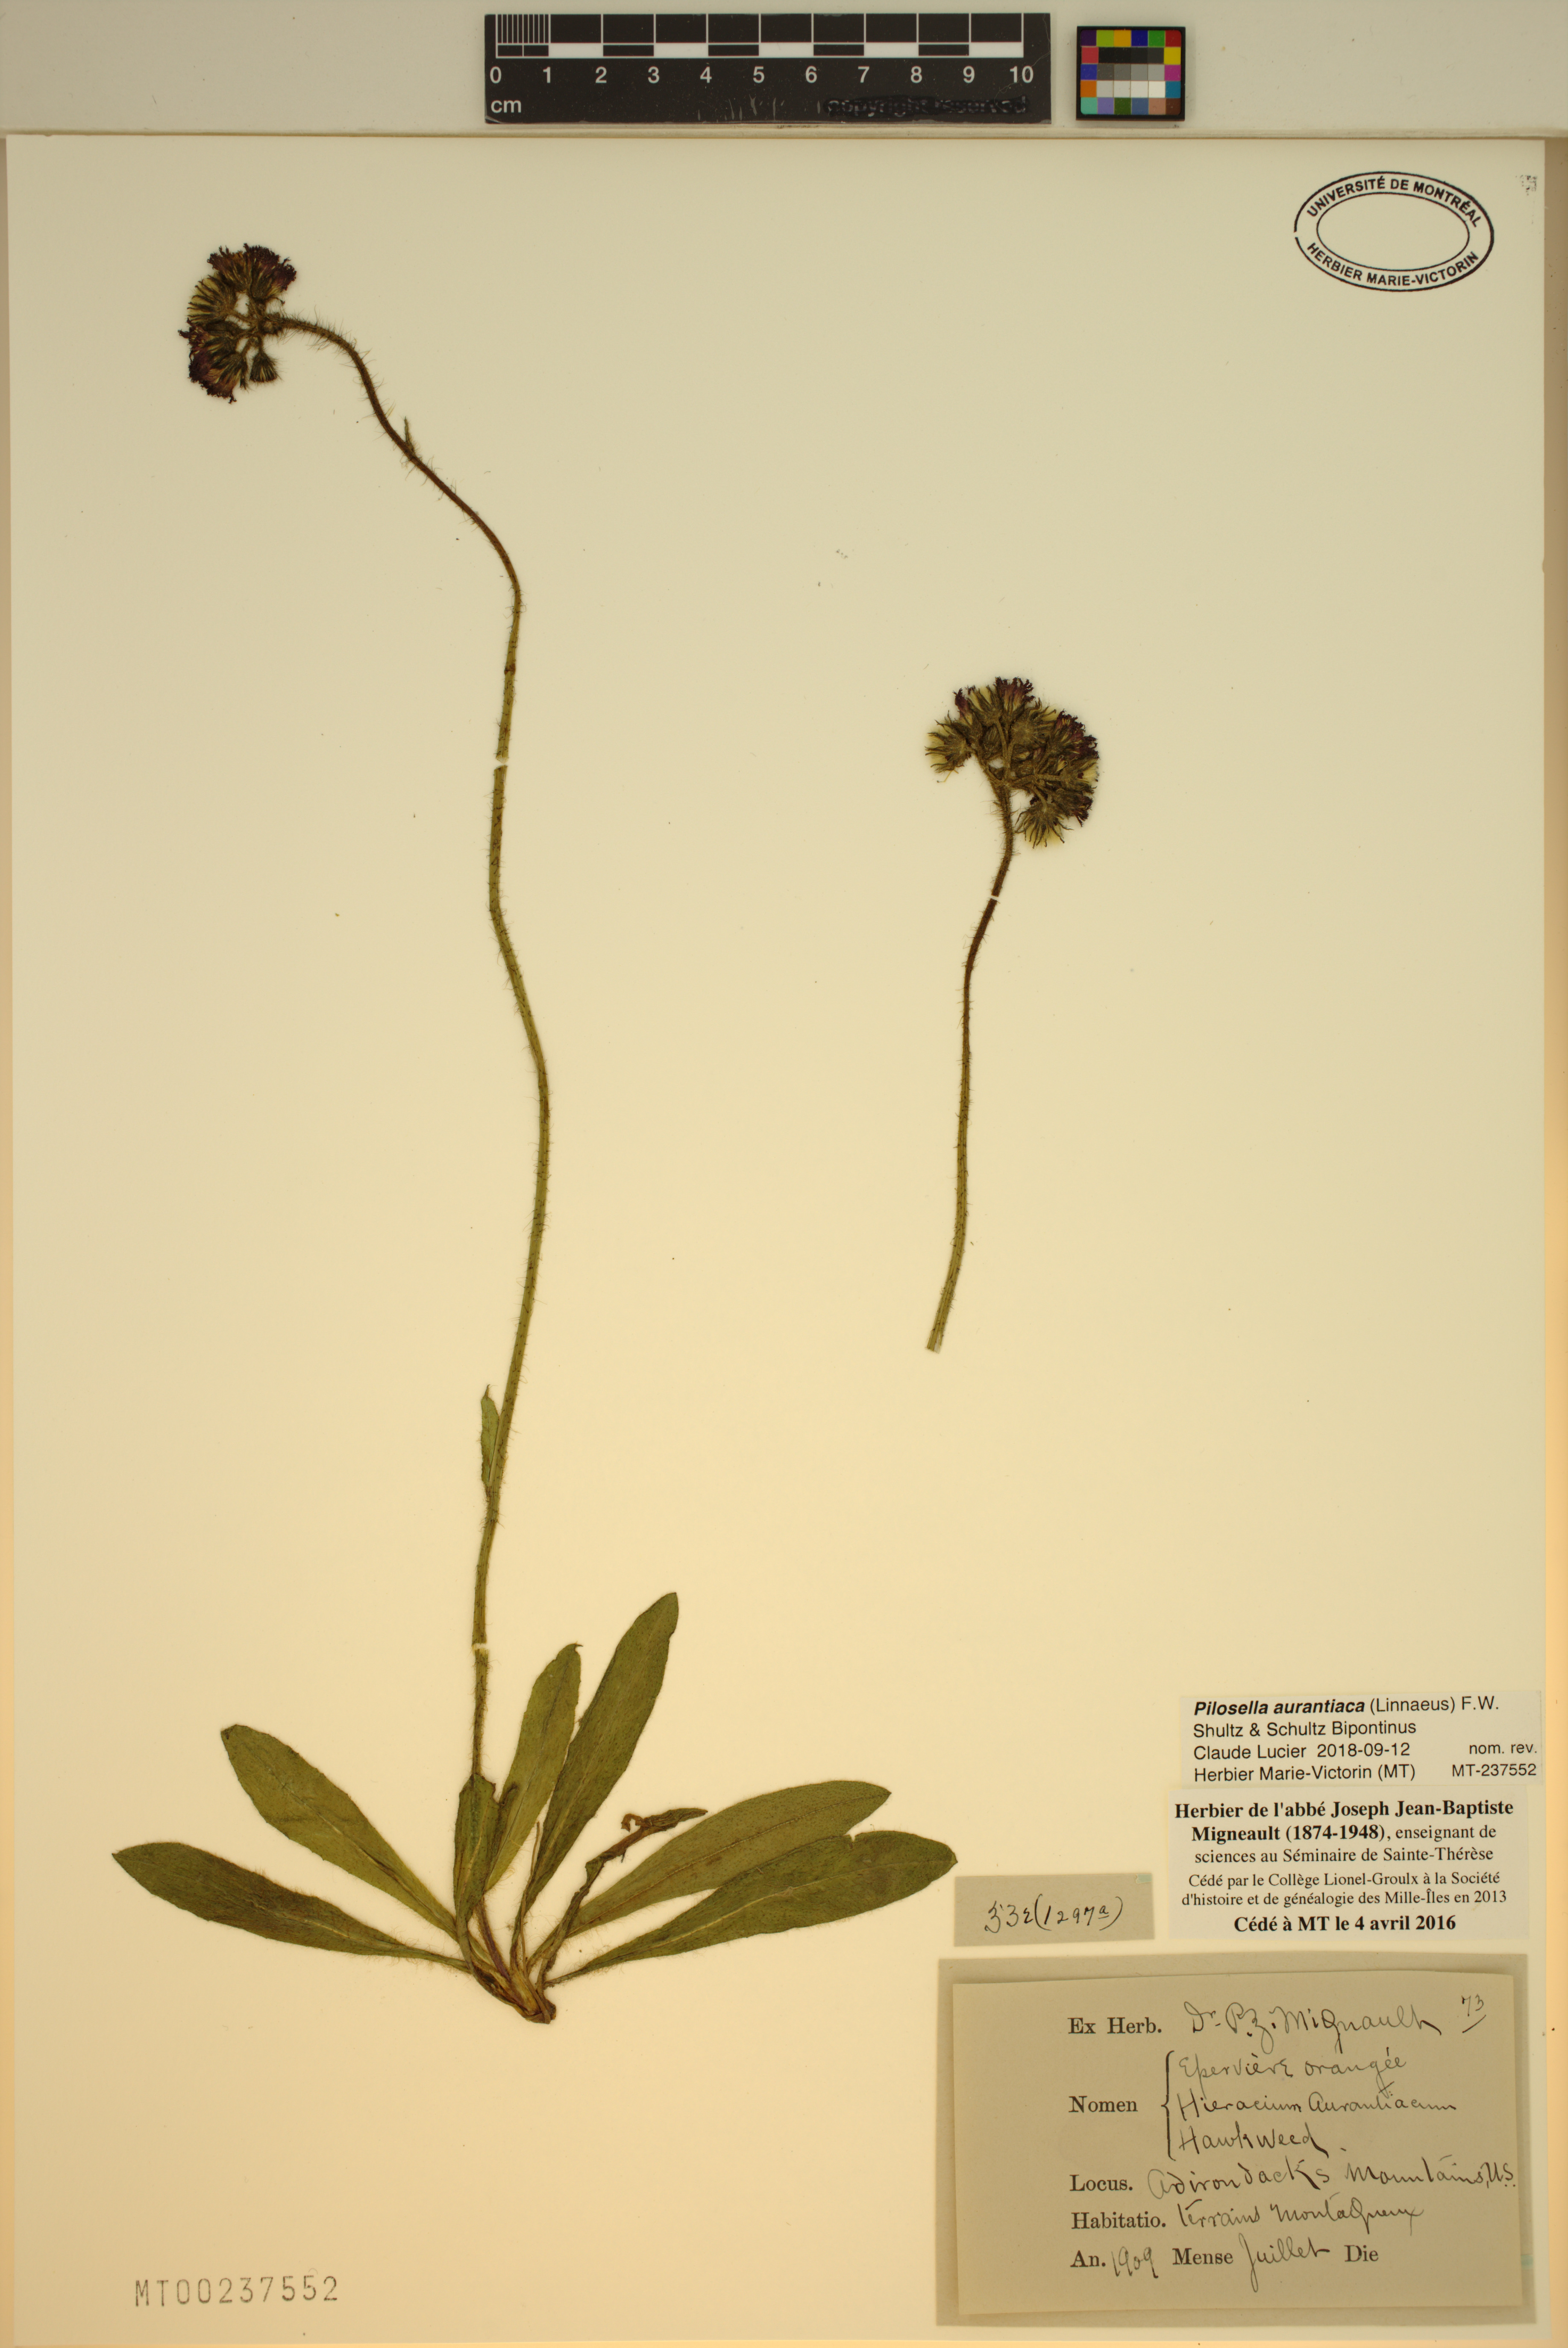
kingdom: Plantae
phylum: Tracheophyta
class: Magnoliopsida
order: Asterales
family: Asteraceae
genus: Pilosella
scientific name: Pilosella aurantiaca
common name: Fox-and-cubs
